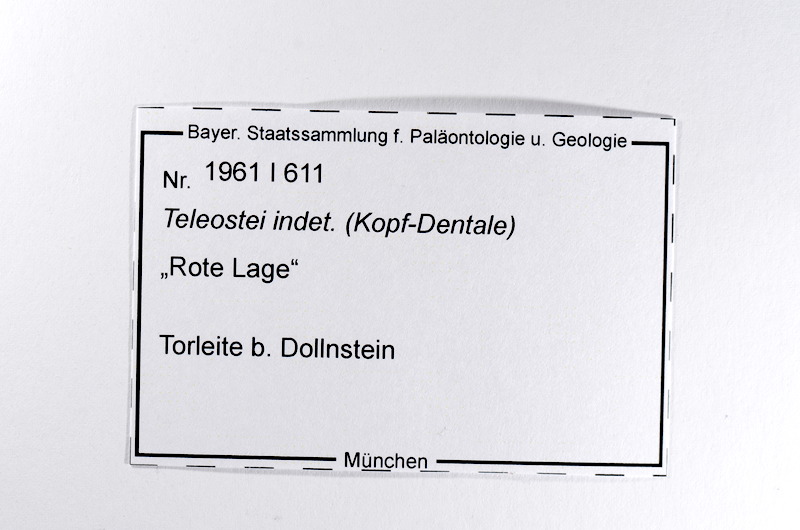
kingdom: Animalia
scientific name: Animalia
